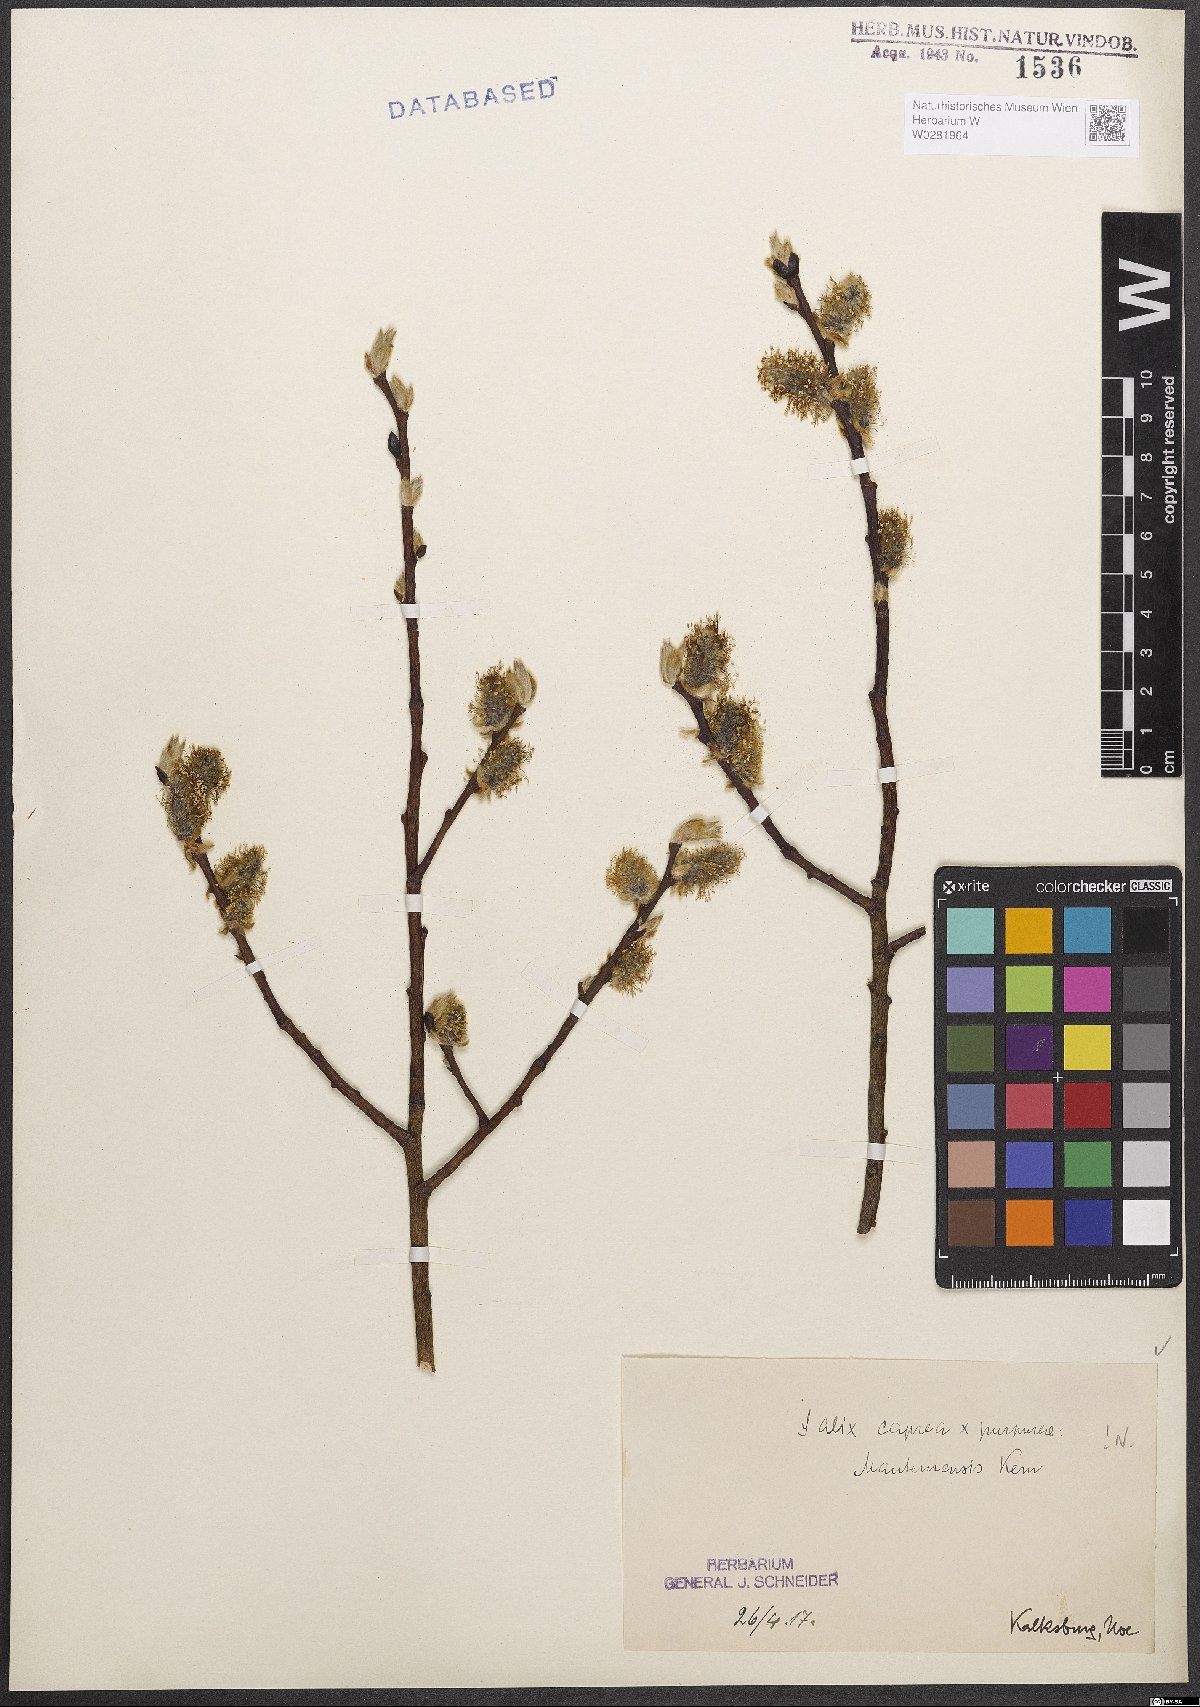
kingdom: Plantae
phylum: Tracheophyta
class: Magnoliopsida
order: Malpighiales
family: Salicaceae
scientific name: Salicaceae
